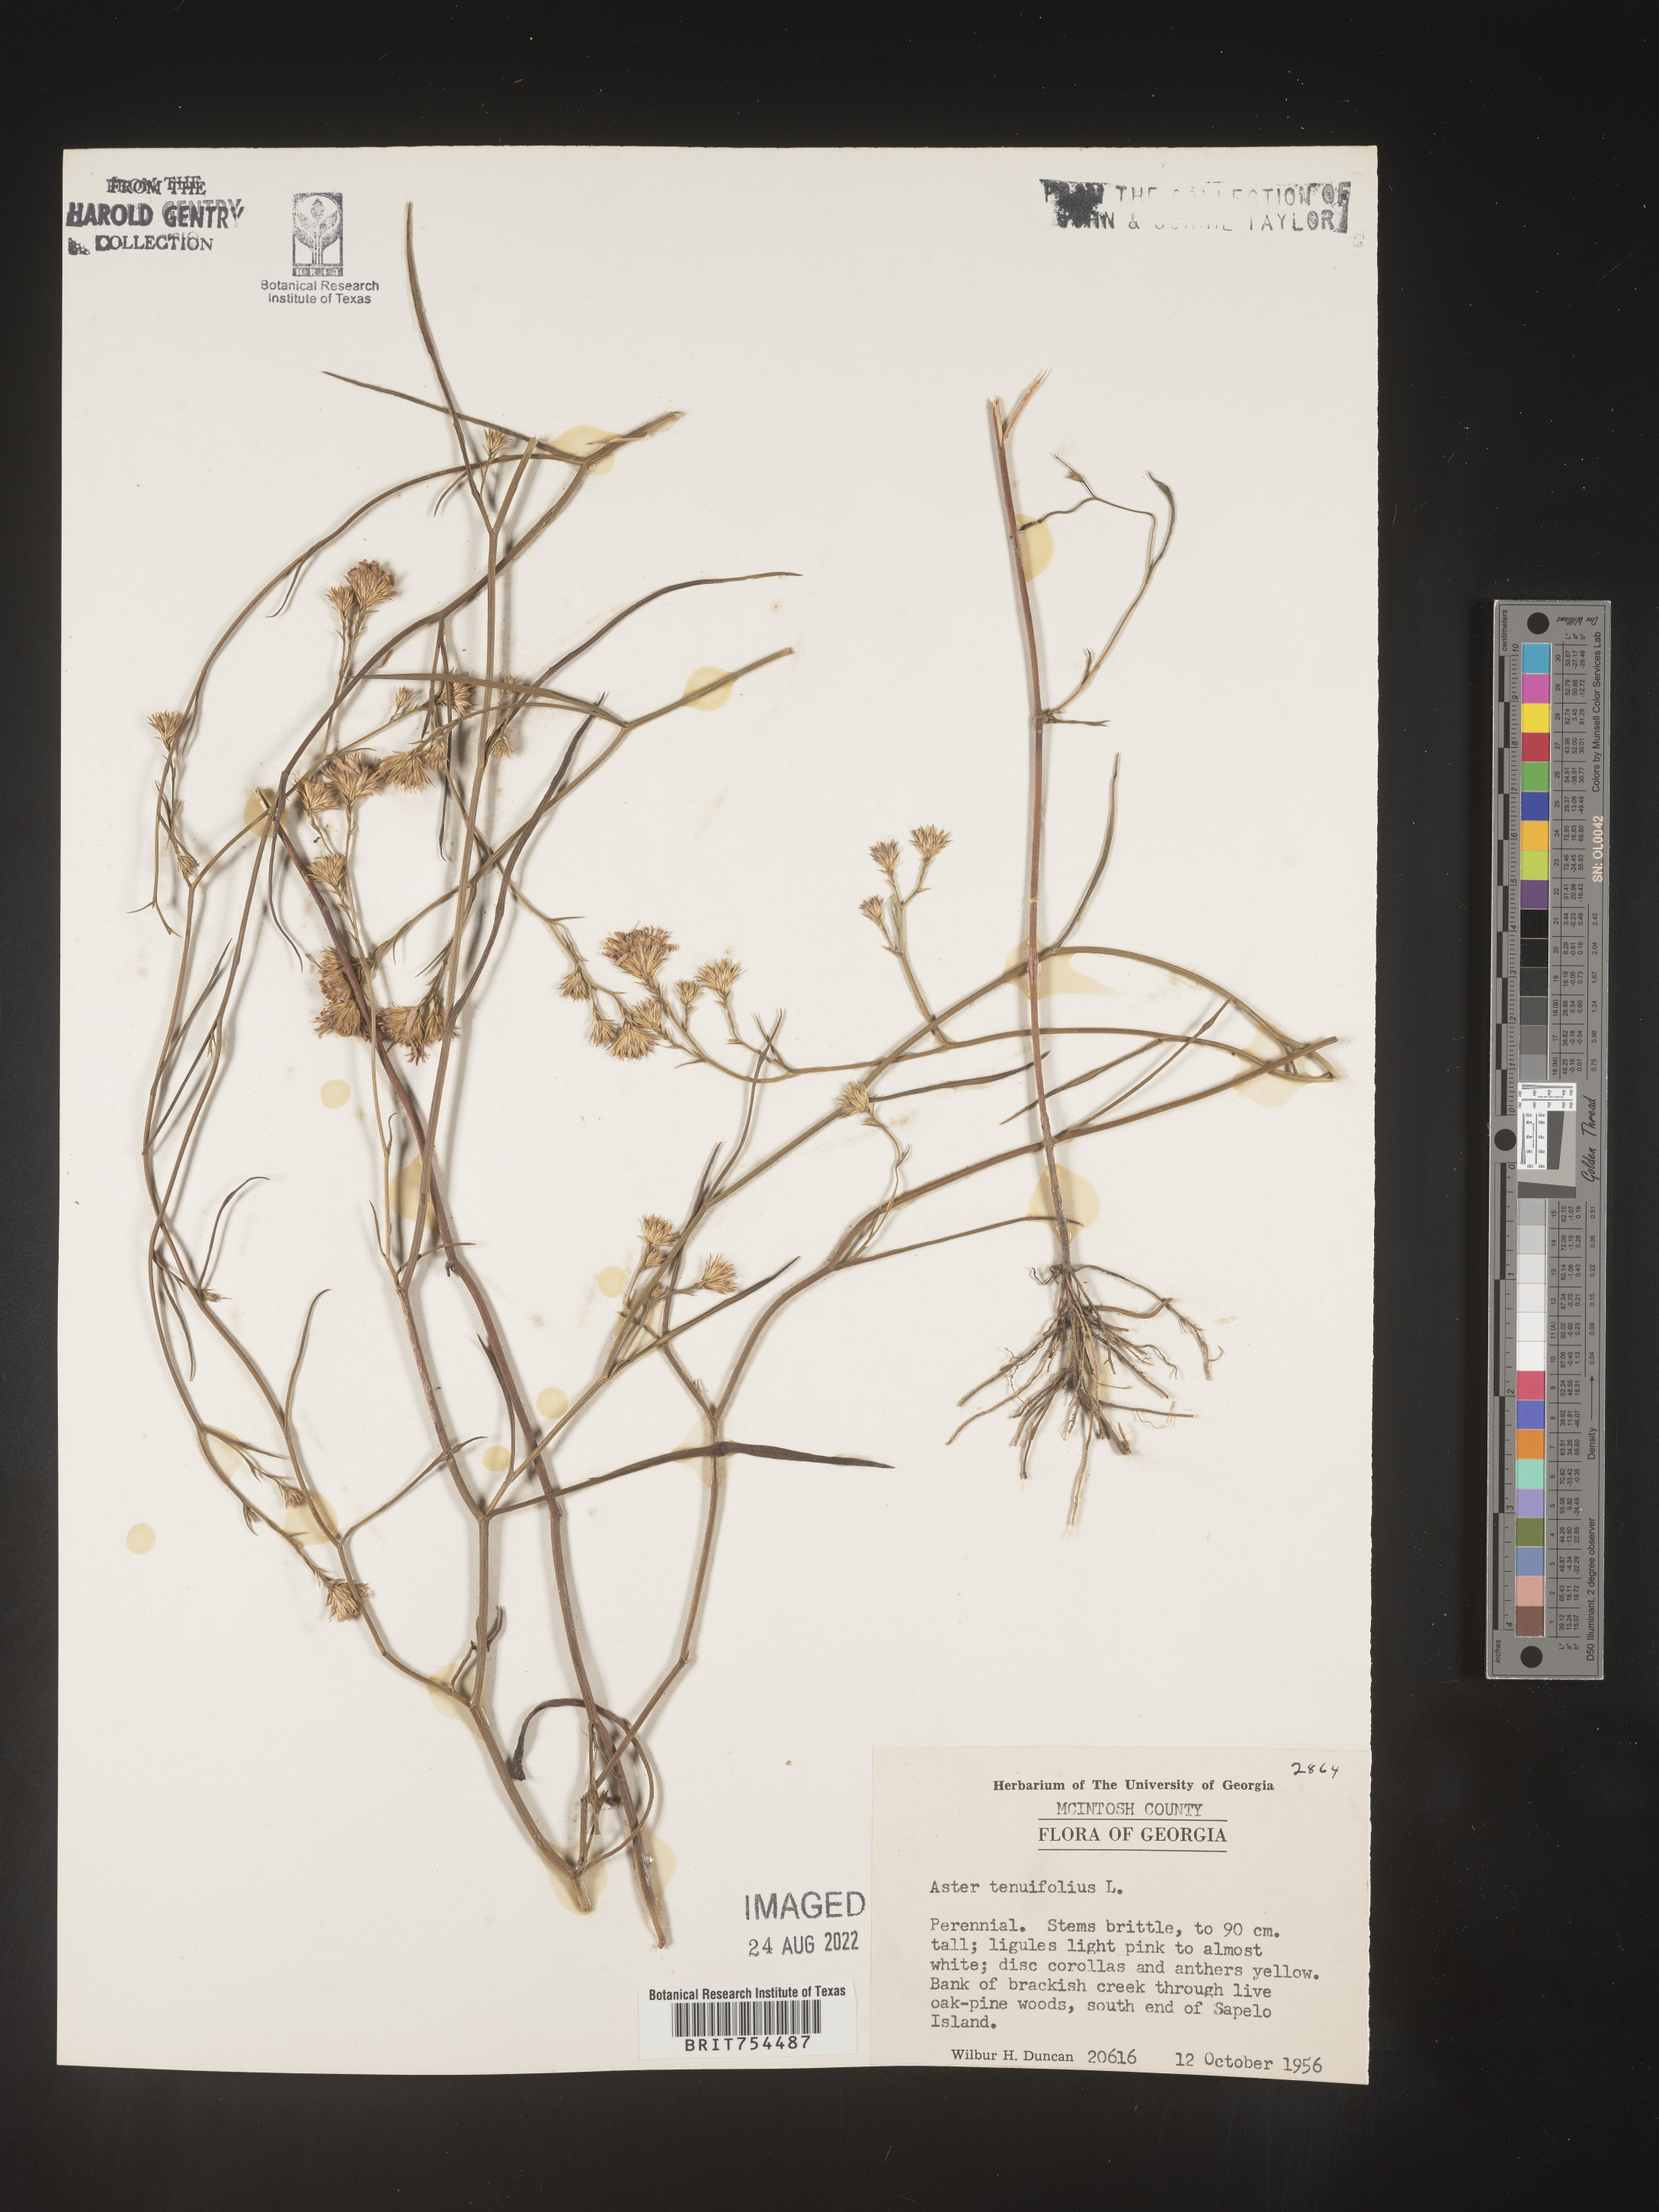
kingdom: Plantae
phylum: Tracheophyta
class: Magnoliopsida
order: Asterales
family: Asteraceae
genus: Symphyotrichum
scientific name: Symphyotrichum tenuifolium
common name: Perennial salt-marsh aster
